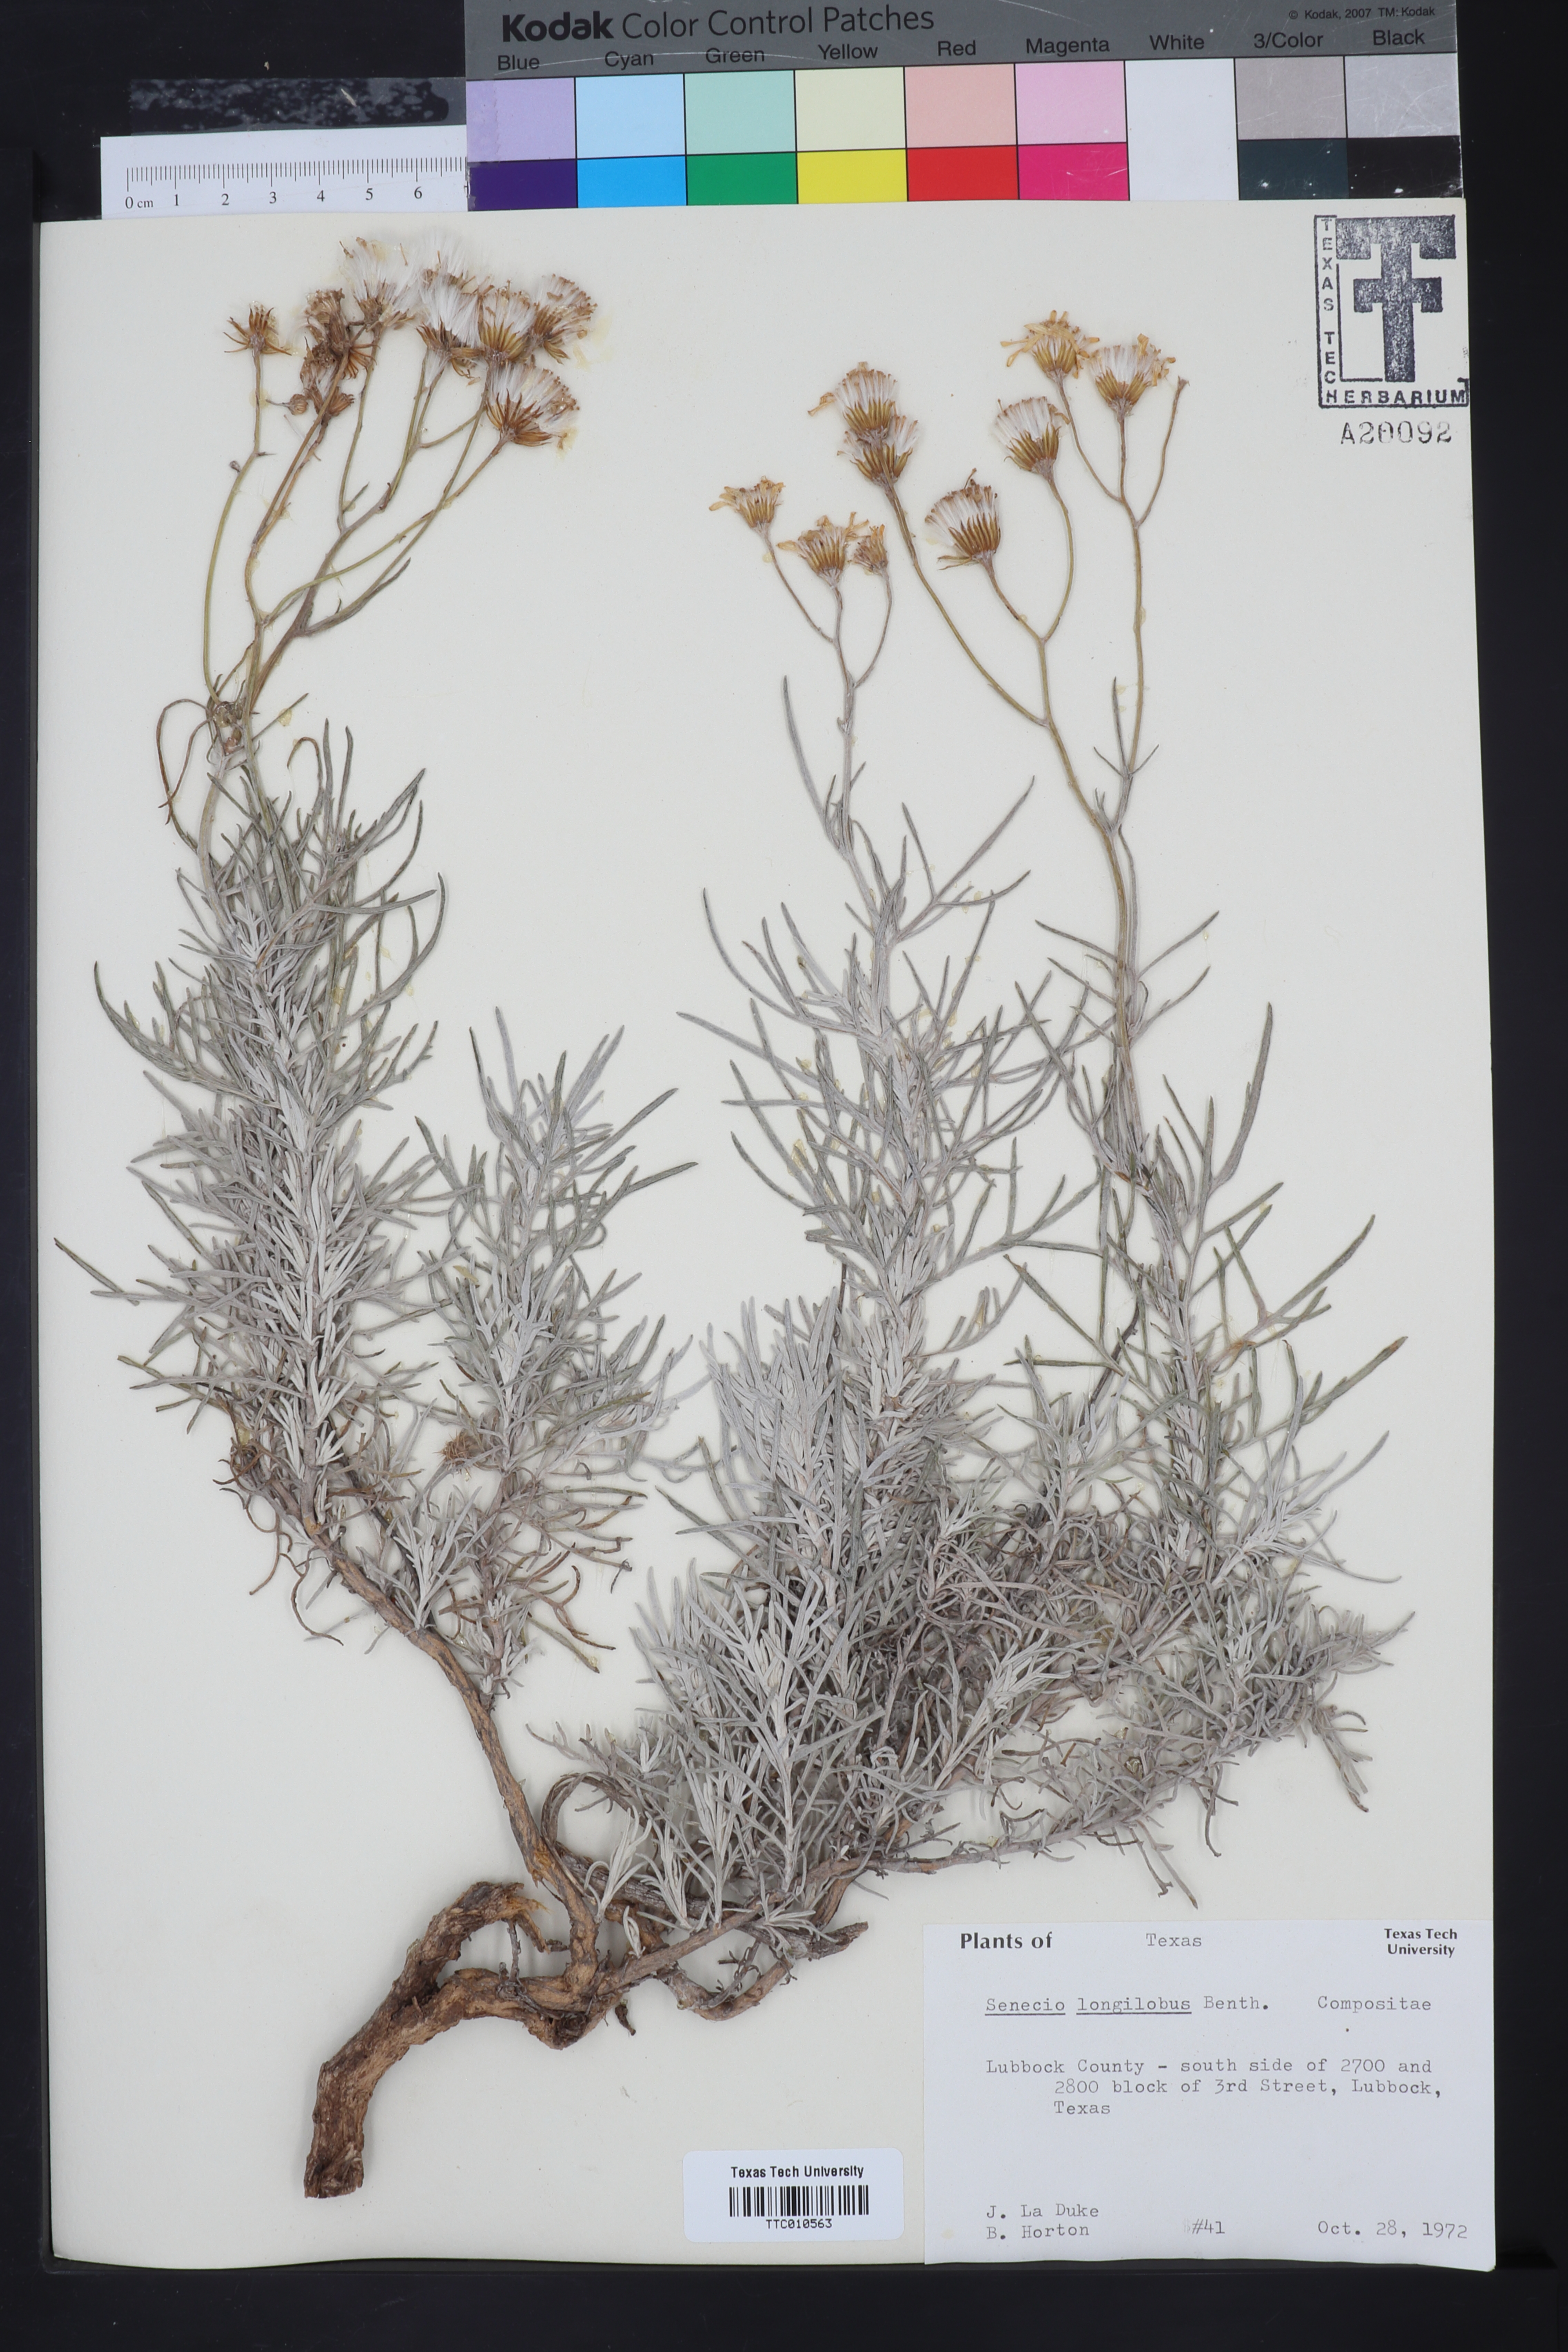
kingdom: Plantae
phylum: Tracheophyta
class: Magnoliopsida
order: Asterales
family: Asteraceae
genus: Senecio
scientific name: Senecio flaccidus
